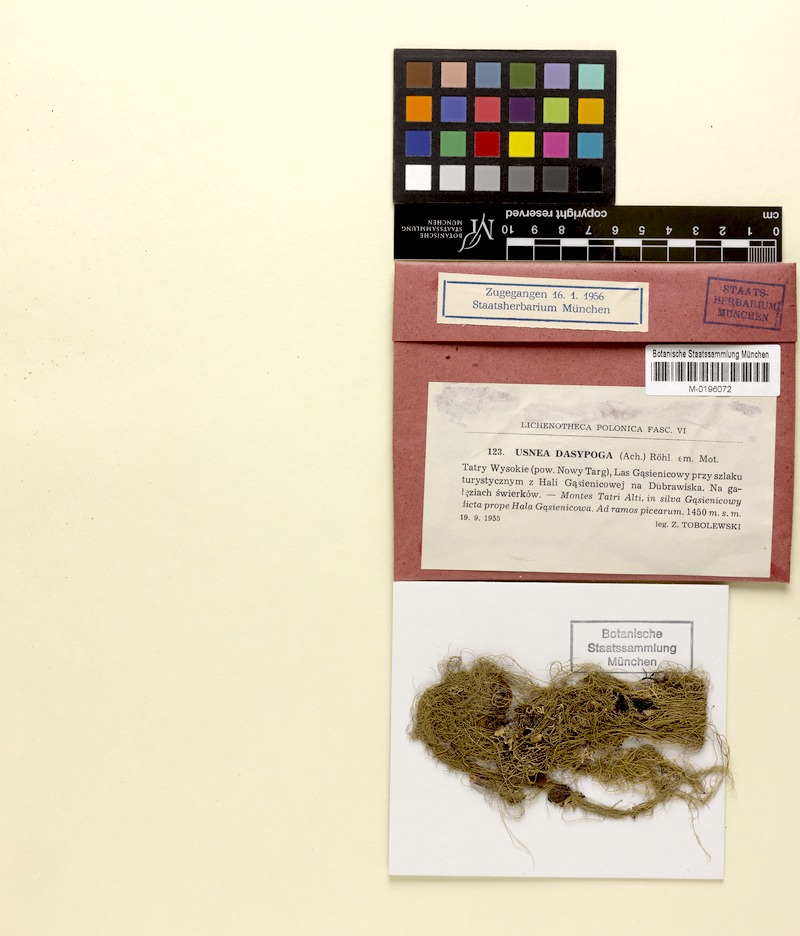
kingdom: Fungi
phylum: Ascomycota
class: Lecanoromycetes
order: Lecanorales
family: Parmeliaceae
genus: Usnea
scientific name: Usnea dasopoga
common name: Fishbone beard lichen
